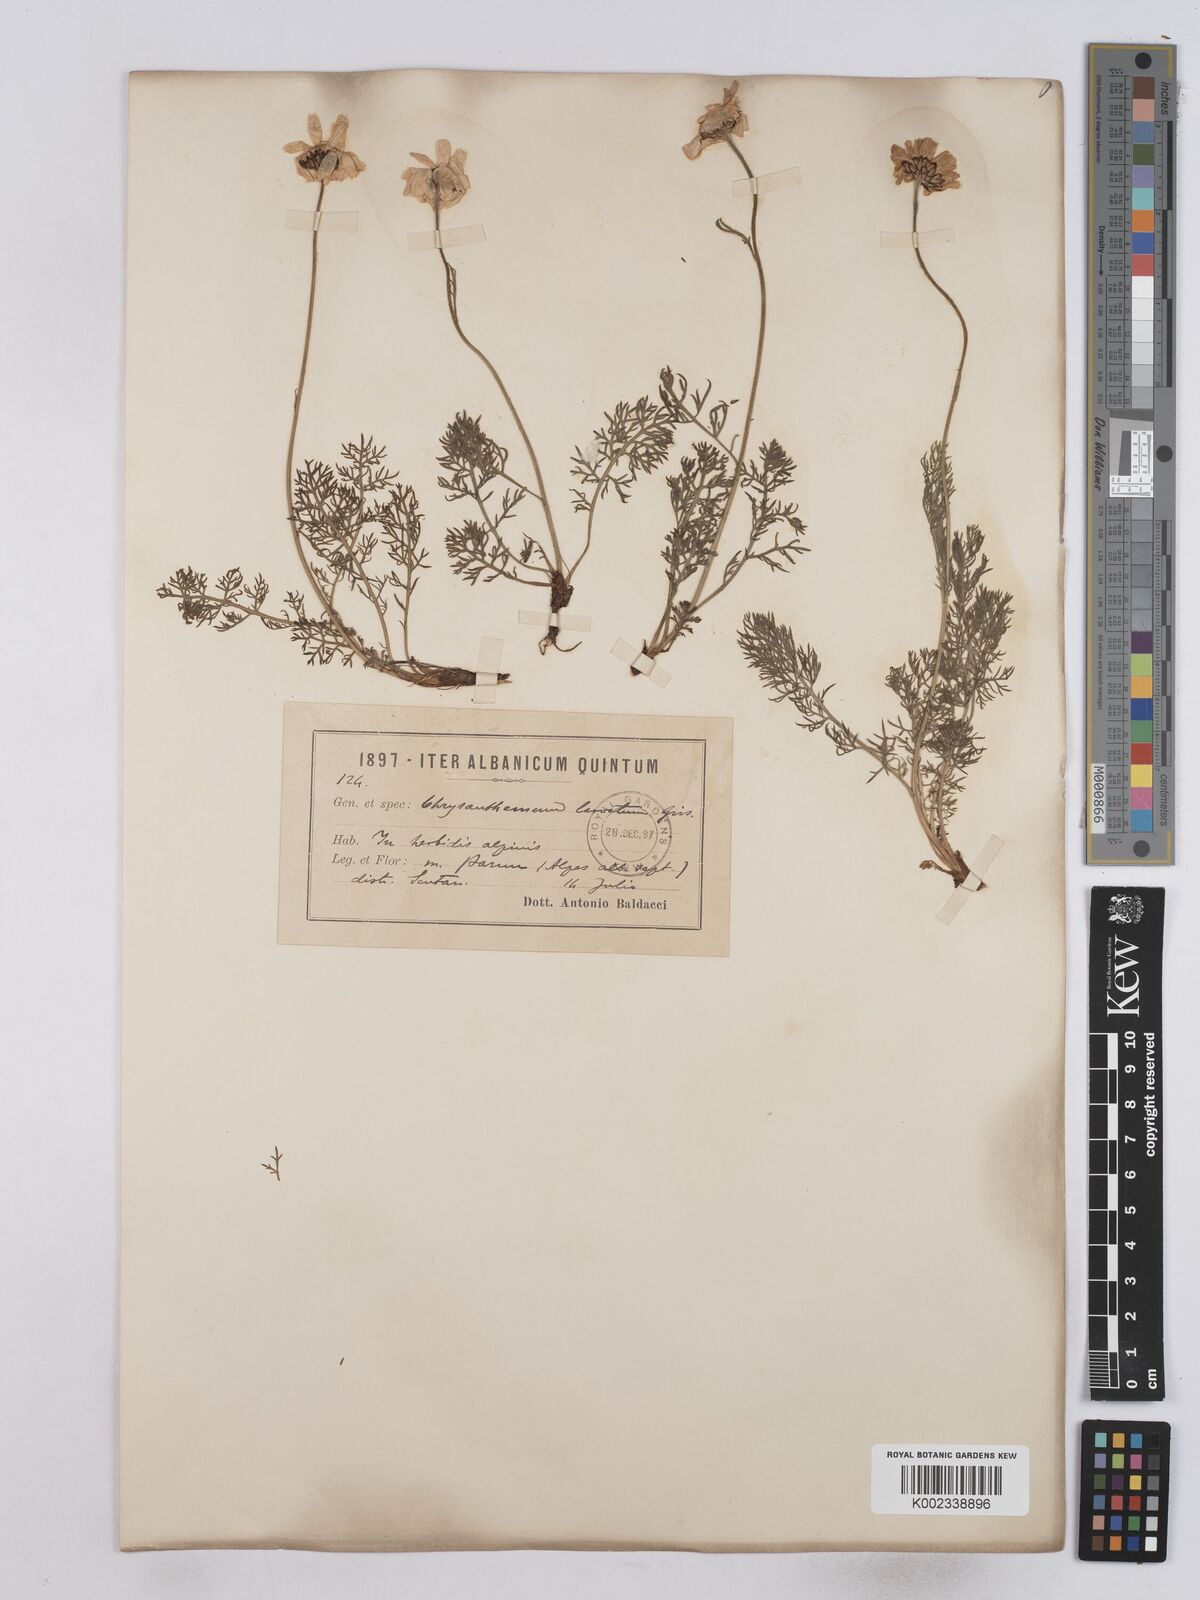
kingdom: Plantae
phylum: Tracheophyta
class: Magnoliopsida
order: Asterales
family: Asteraceae
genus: Leucanthemum
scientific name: Leucanthemum coronopifolium
